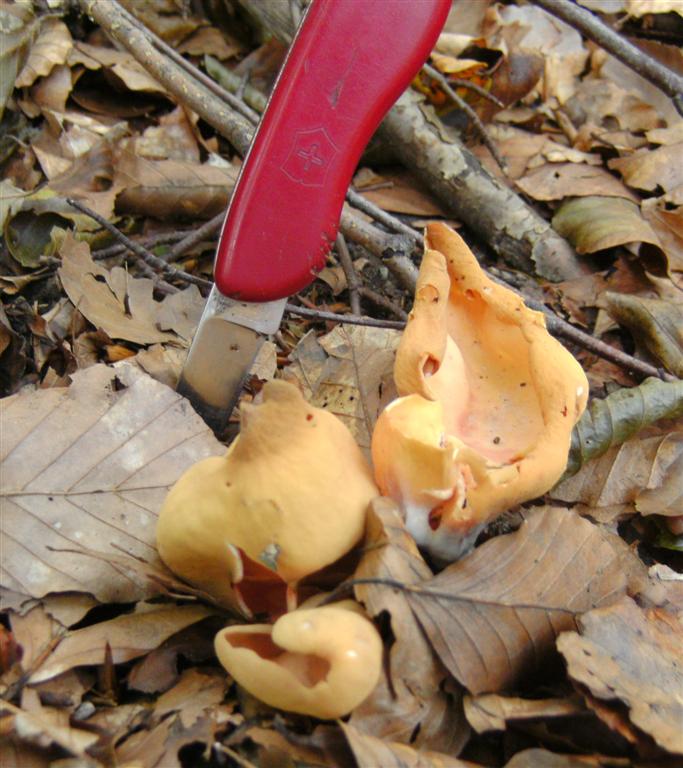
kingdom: Fungi
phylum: Ascomycota
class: Pezizomycetes
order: Pezizales
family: Otideaceae
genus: Otidea
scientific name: Otidea onotica
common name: æsel-ørebæger
